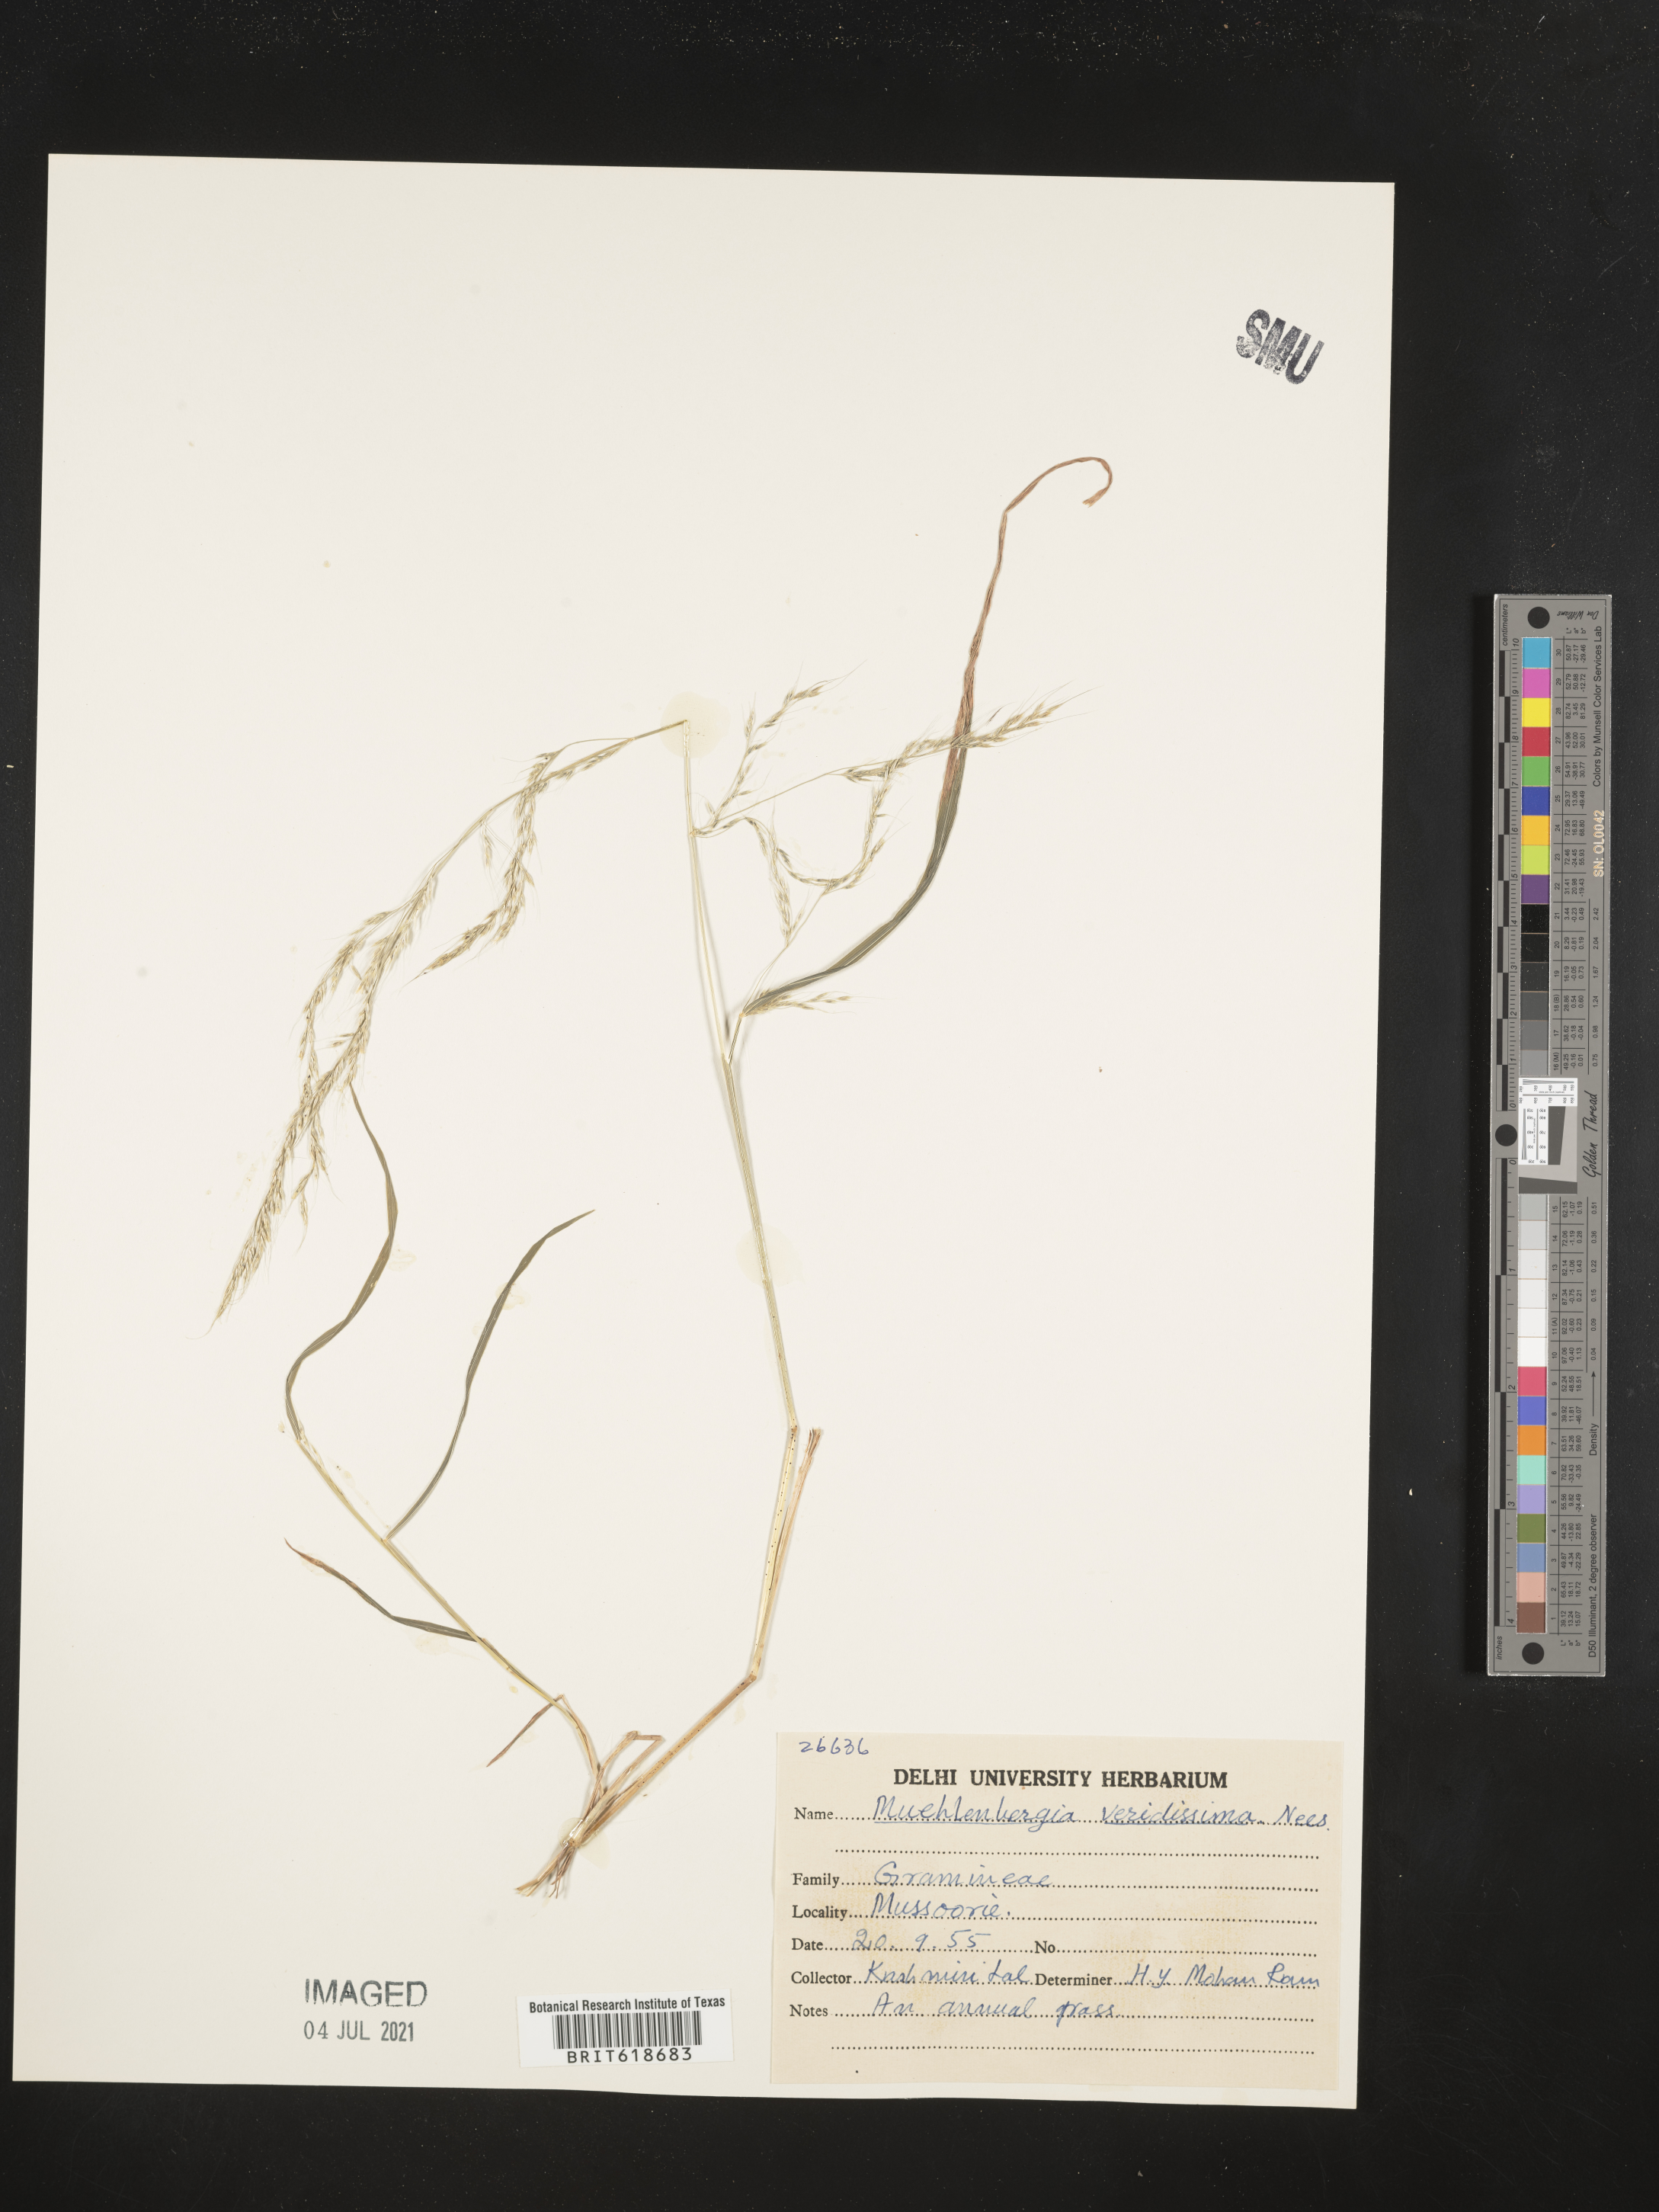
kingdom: Plantae
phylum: Tracheophyta
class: Liliopsida
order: Poales
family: Poaceae
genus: Muhlenbergia
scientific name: Muhlenbergia huegelii
